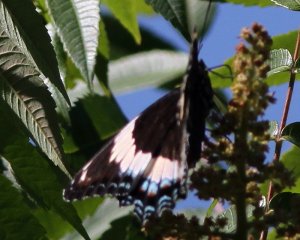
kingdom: Animalia
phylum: Arthropoda
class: Insecta
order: Lepidoptera
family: Nymphalidae
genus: Limenitis
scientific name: Limenitis arthemis
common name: Red-spotted Admiral
